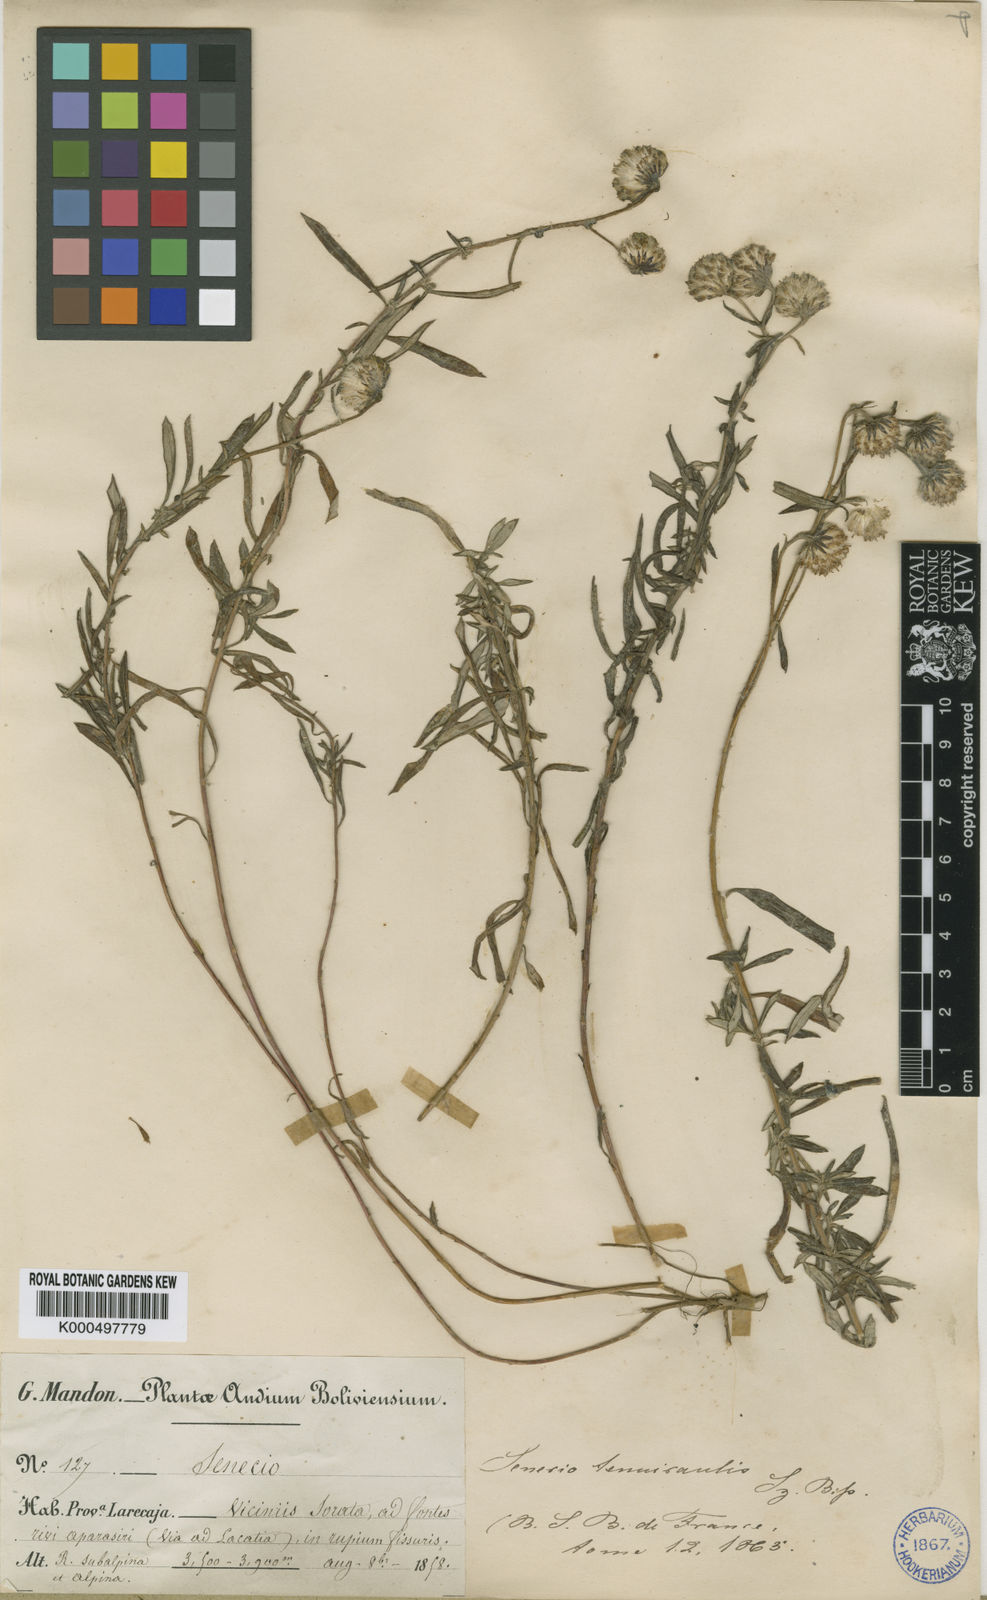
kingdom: Plantae
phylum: Tracheophyta
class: Magnoliopsida
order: Asterales
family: Asteraceae
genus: Senecio
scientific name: Senecio tenuicaulis
